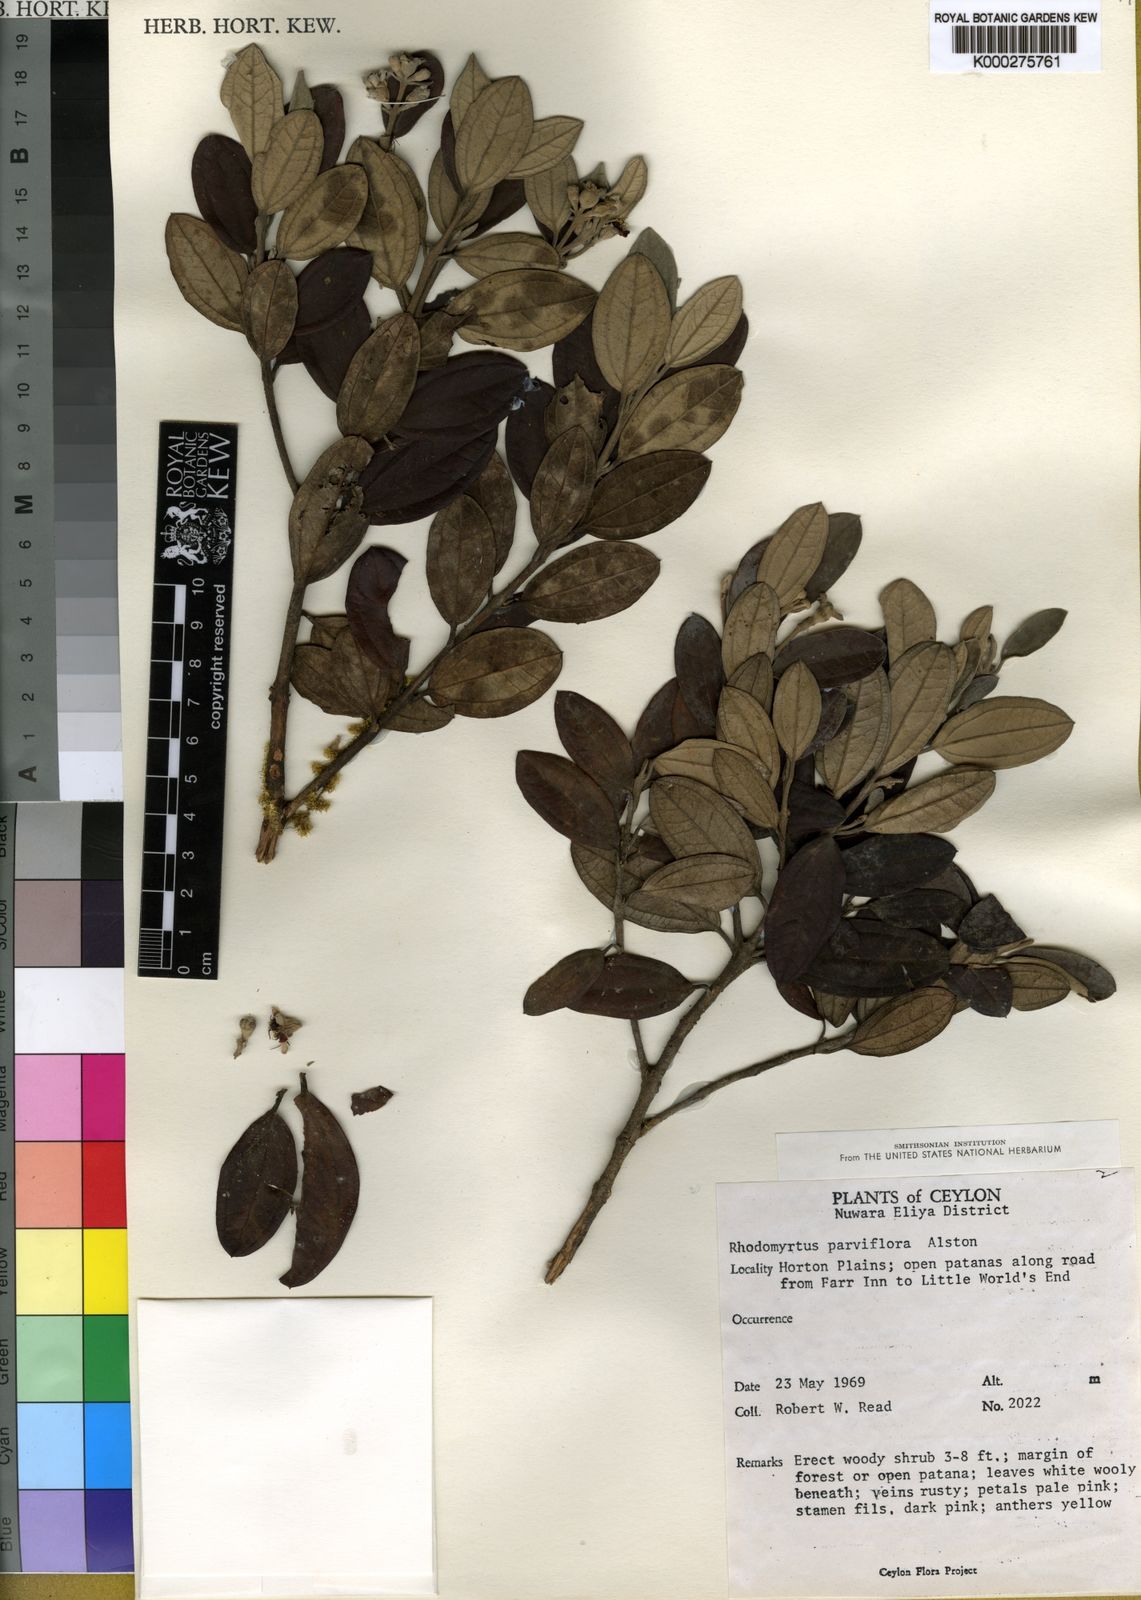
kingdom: Plantae
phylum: Tracheophyta
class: Magnoliopsida
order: Myrtales
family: Myrtaceae
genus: Rhodomyrtus
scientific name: Rhodomyrtus tomentosa
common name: Rose myrtle
